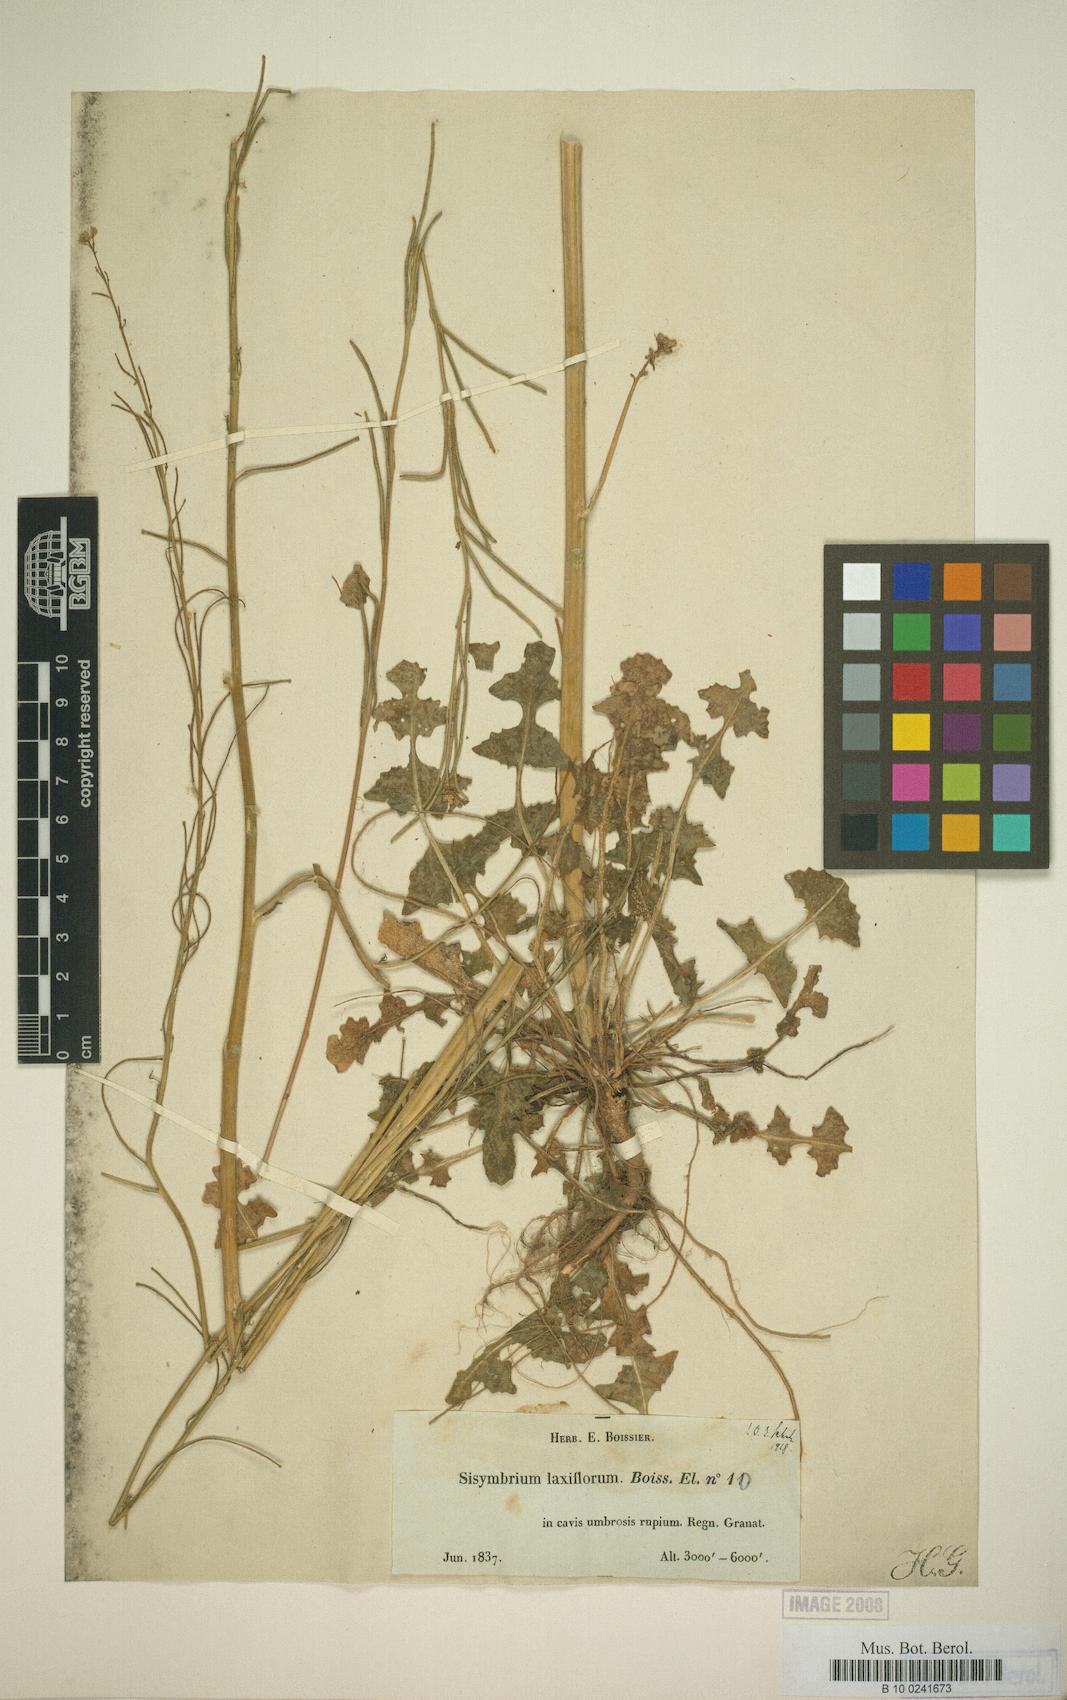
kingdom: Plantae
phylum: Tracheophyta
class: Magnoliopsida
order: Brassicales
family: Brassicaceae
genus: Sisymbrium
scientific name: Sisymbrium crassifolium
